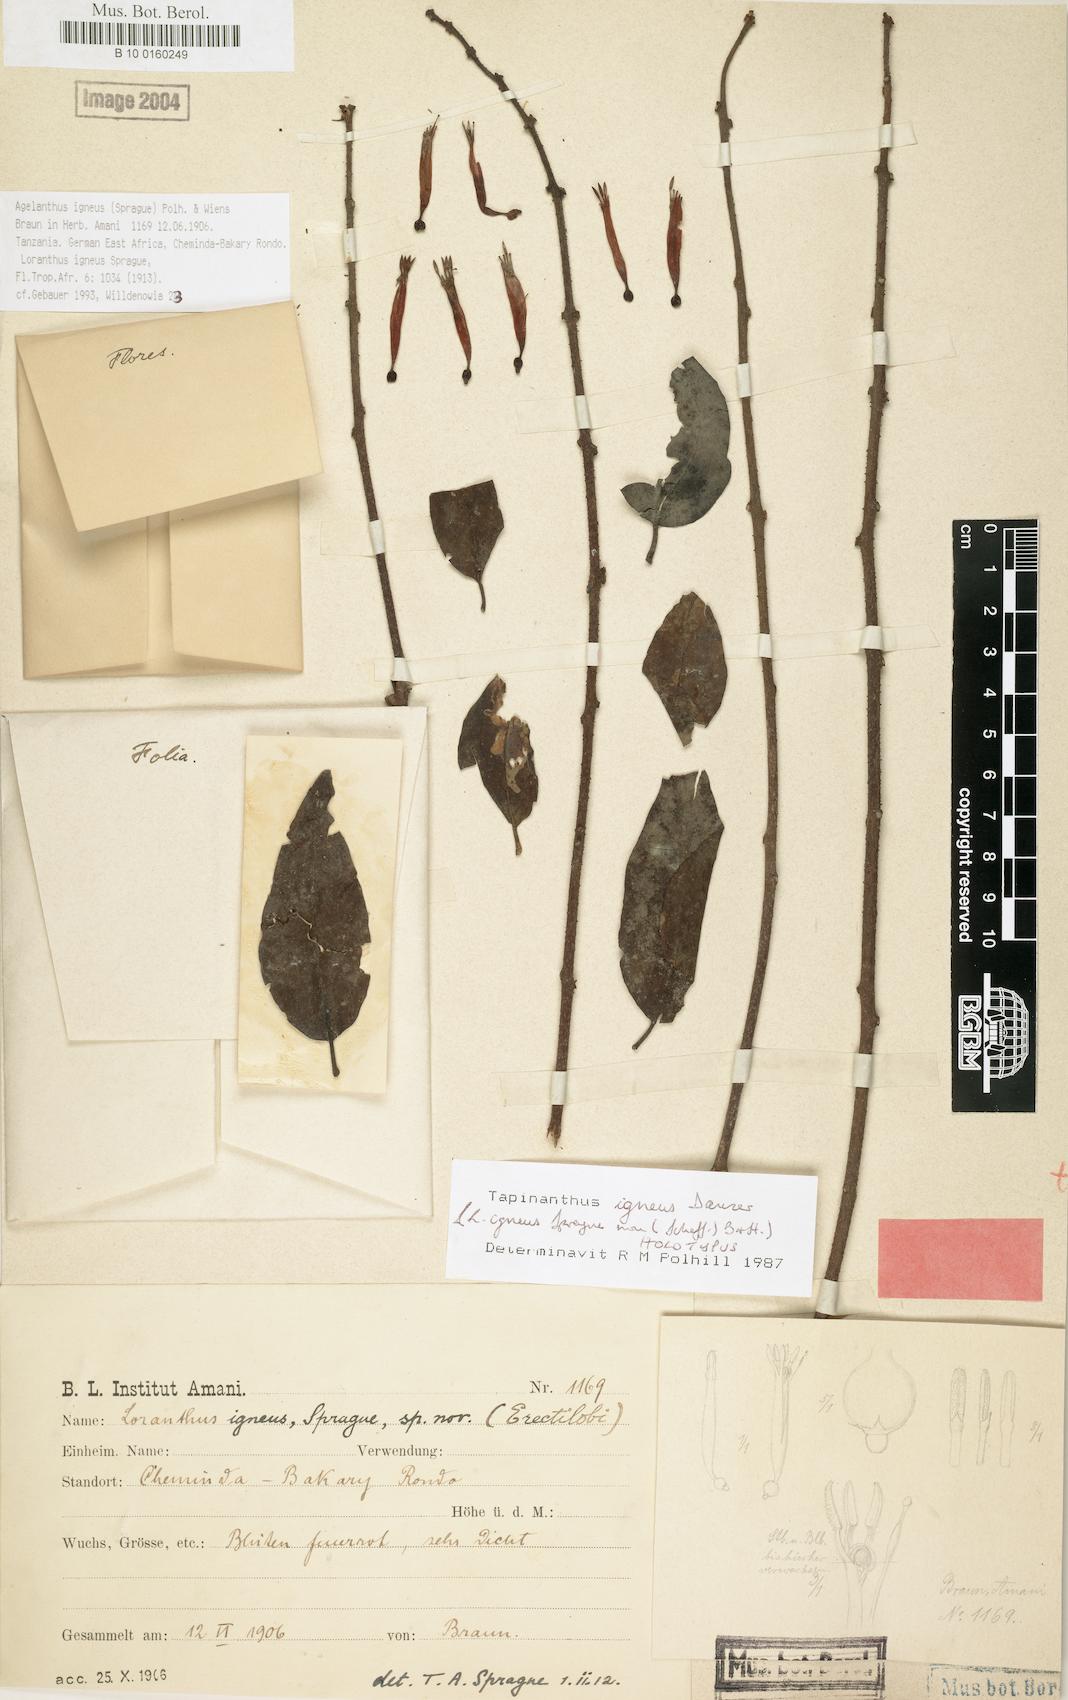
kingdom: Plantae
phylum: Tracheophyta
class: Magnoliopsida
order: Santalales
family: Loranthaceae
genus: Agelanthus
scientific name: Agelanthus igneus
